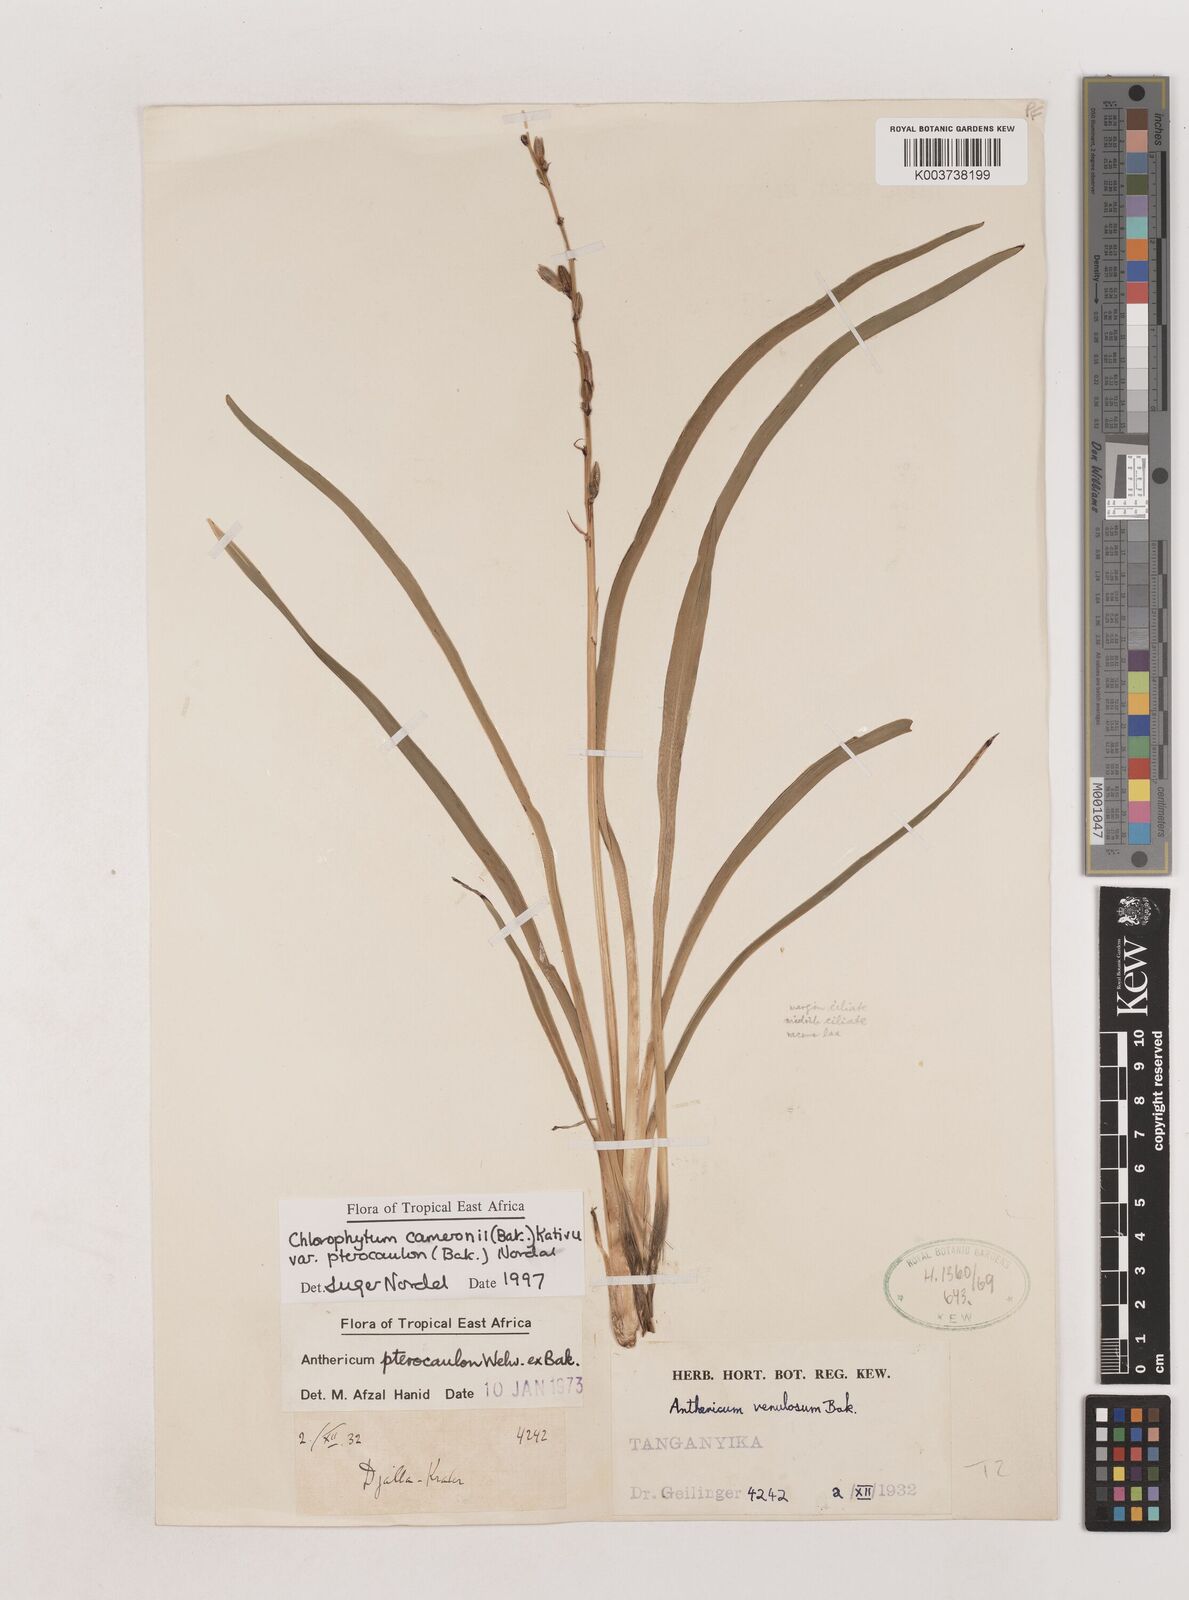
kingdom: Plantae
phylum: Tracheophyta
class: Liliopsida
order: Asparagales
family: Asparagaceae
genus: Chlorophytum
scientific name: Chlorophytum cameronii
